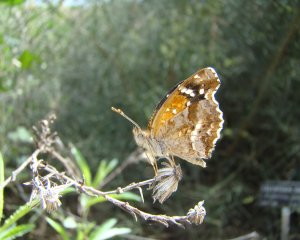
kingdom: Animalia
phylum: Arthropoda
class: Insecta
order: Lepidoptera
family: Nymphalidae
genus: Anthanassa
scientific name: Anthanassa texana
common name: Texan Crescent
